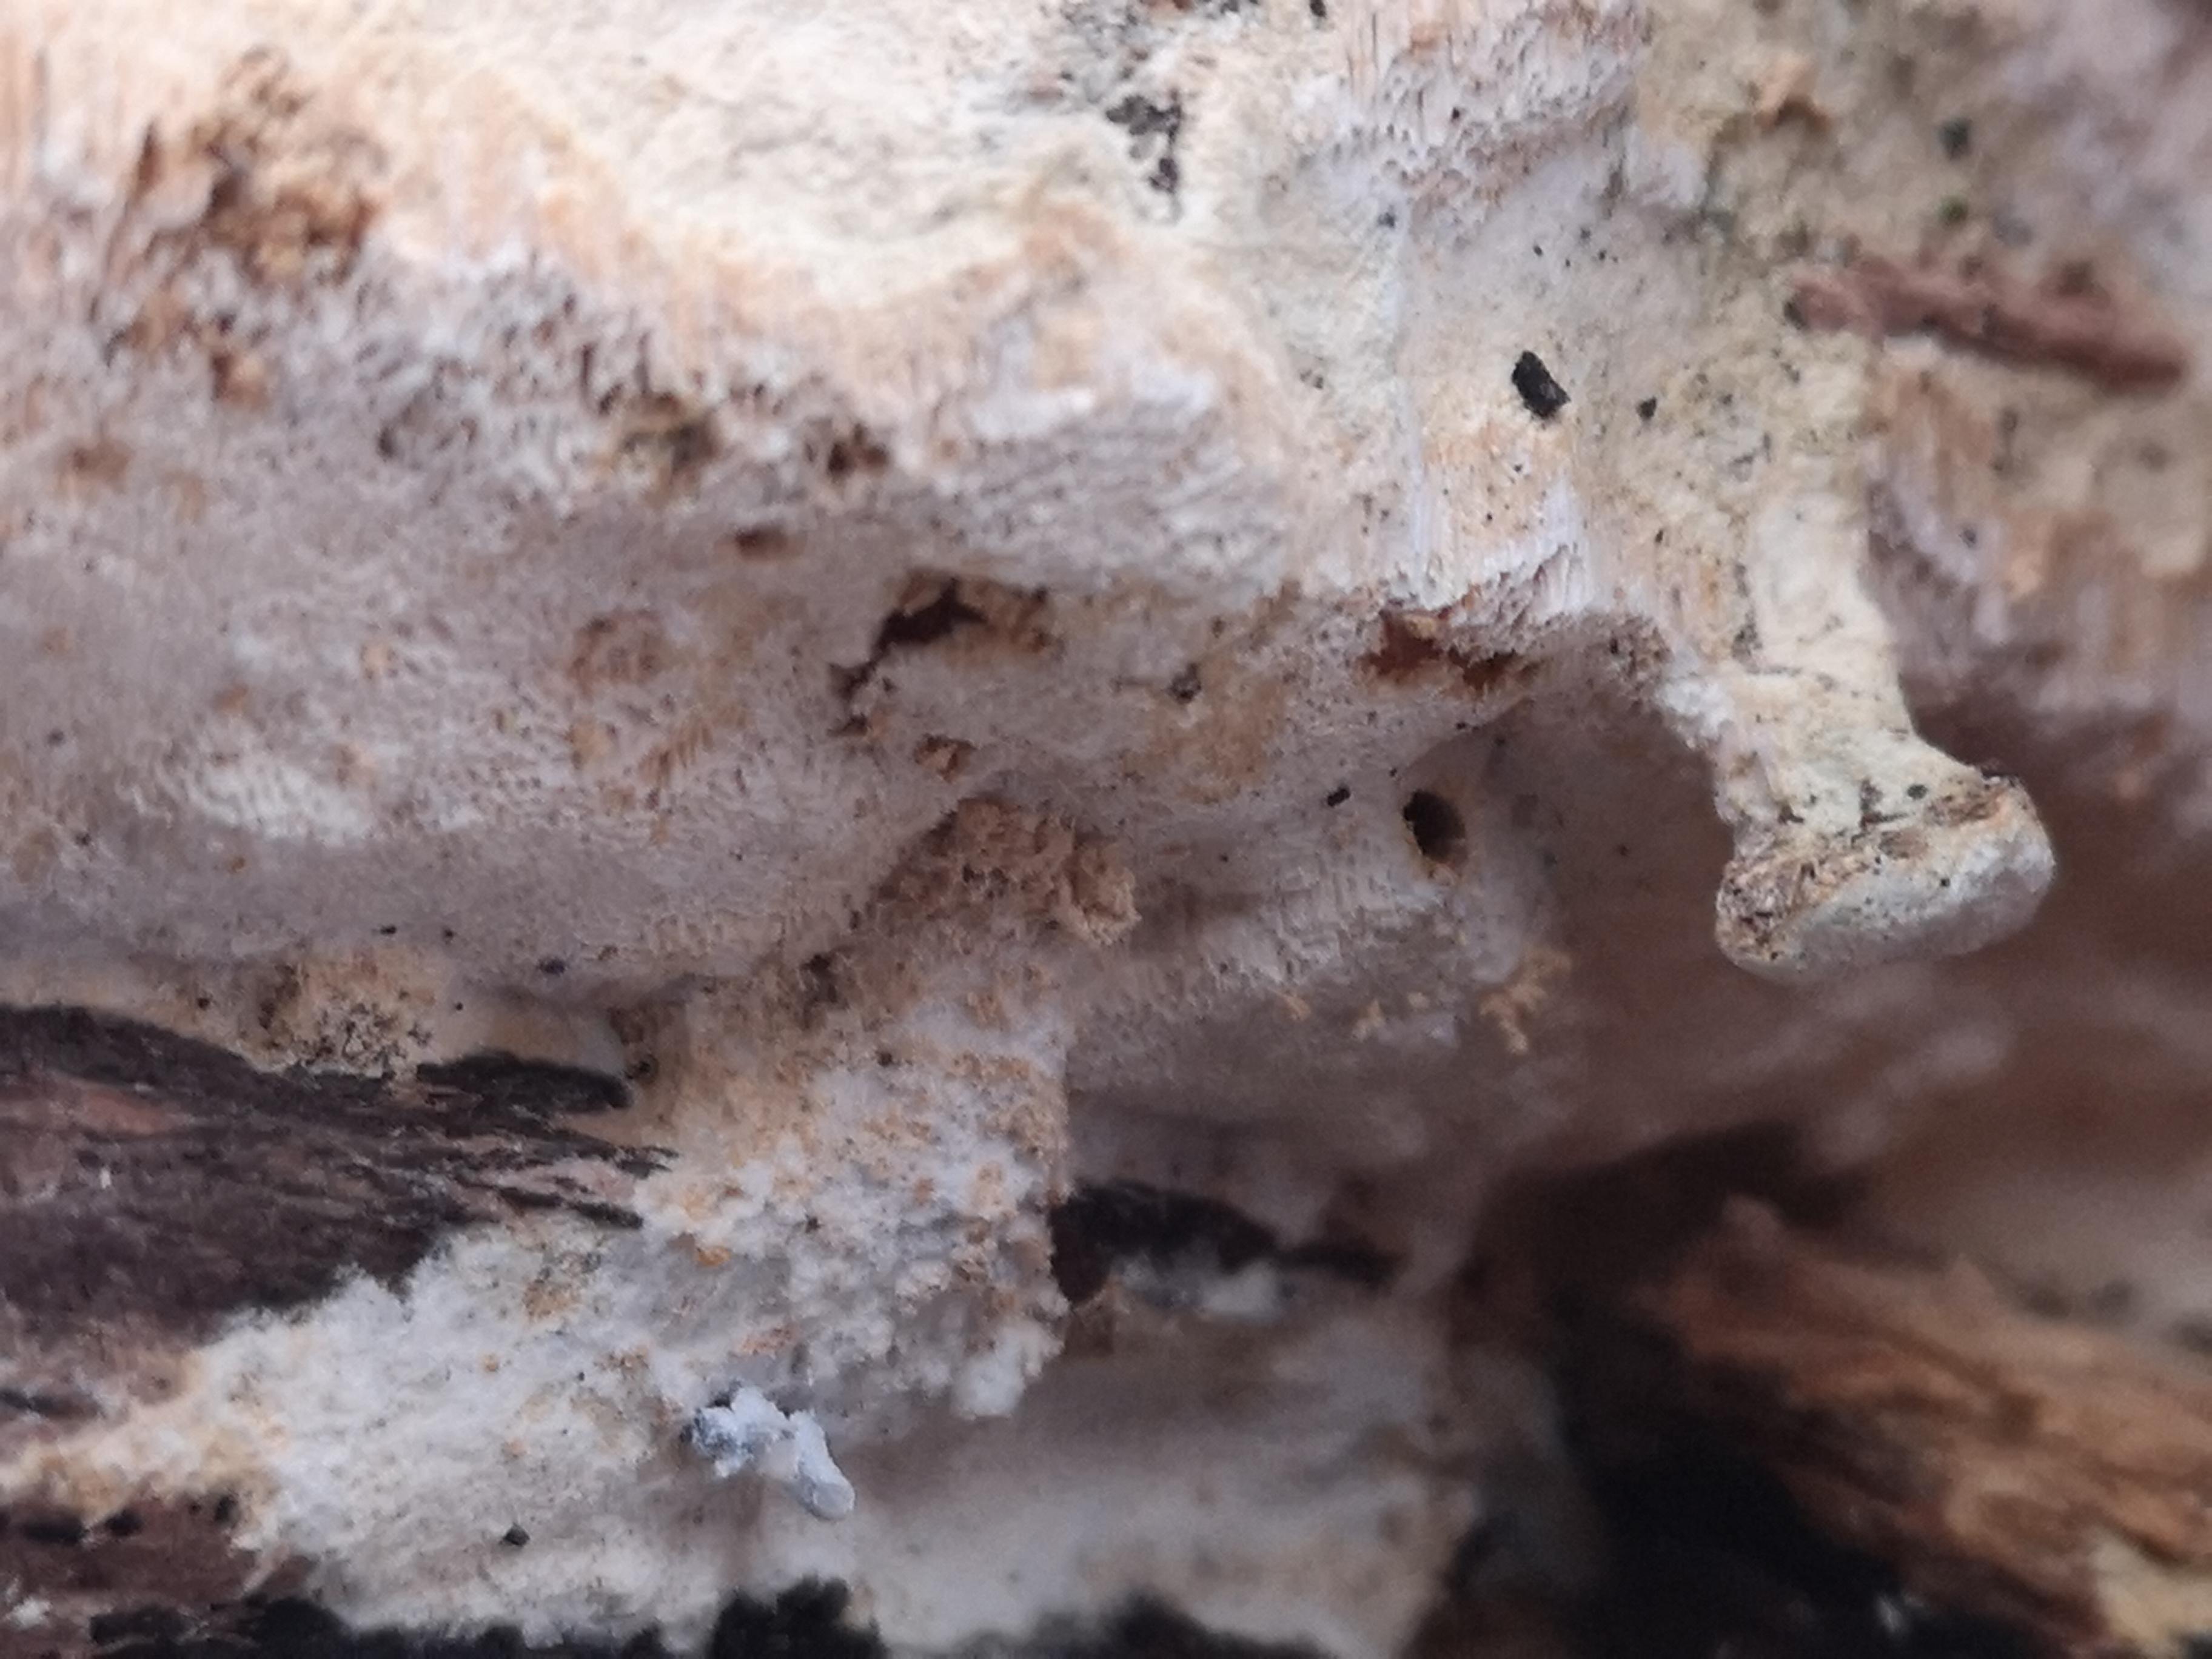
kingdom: Fungi
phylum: Basidiomycota
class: Agaricomycetes
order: Polyporales
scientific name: Polyporales
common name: poresvampordenen
